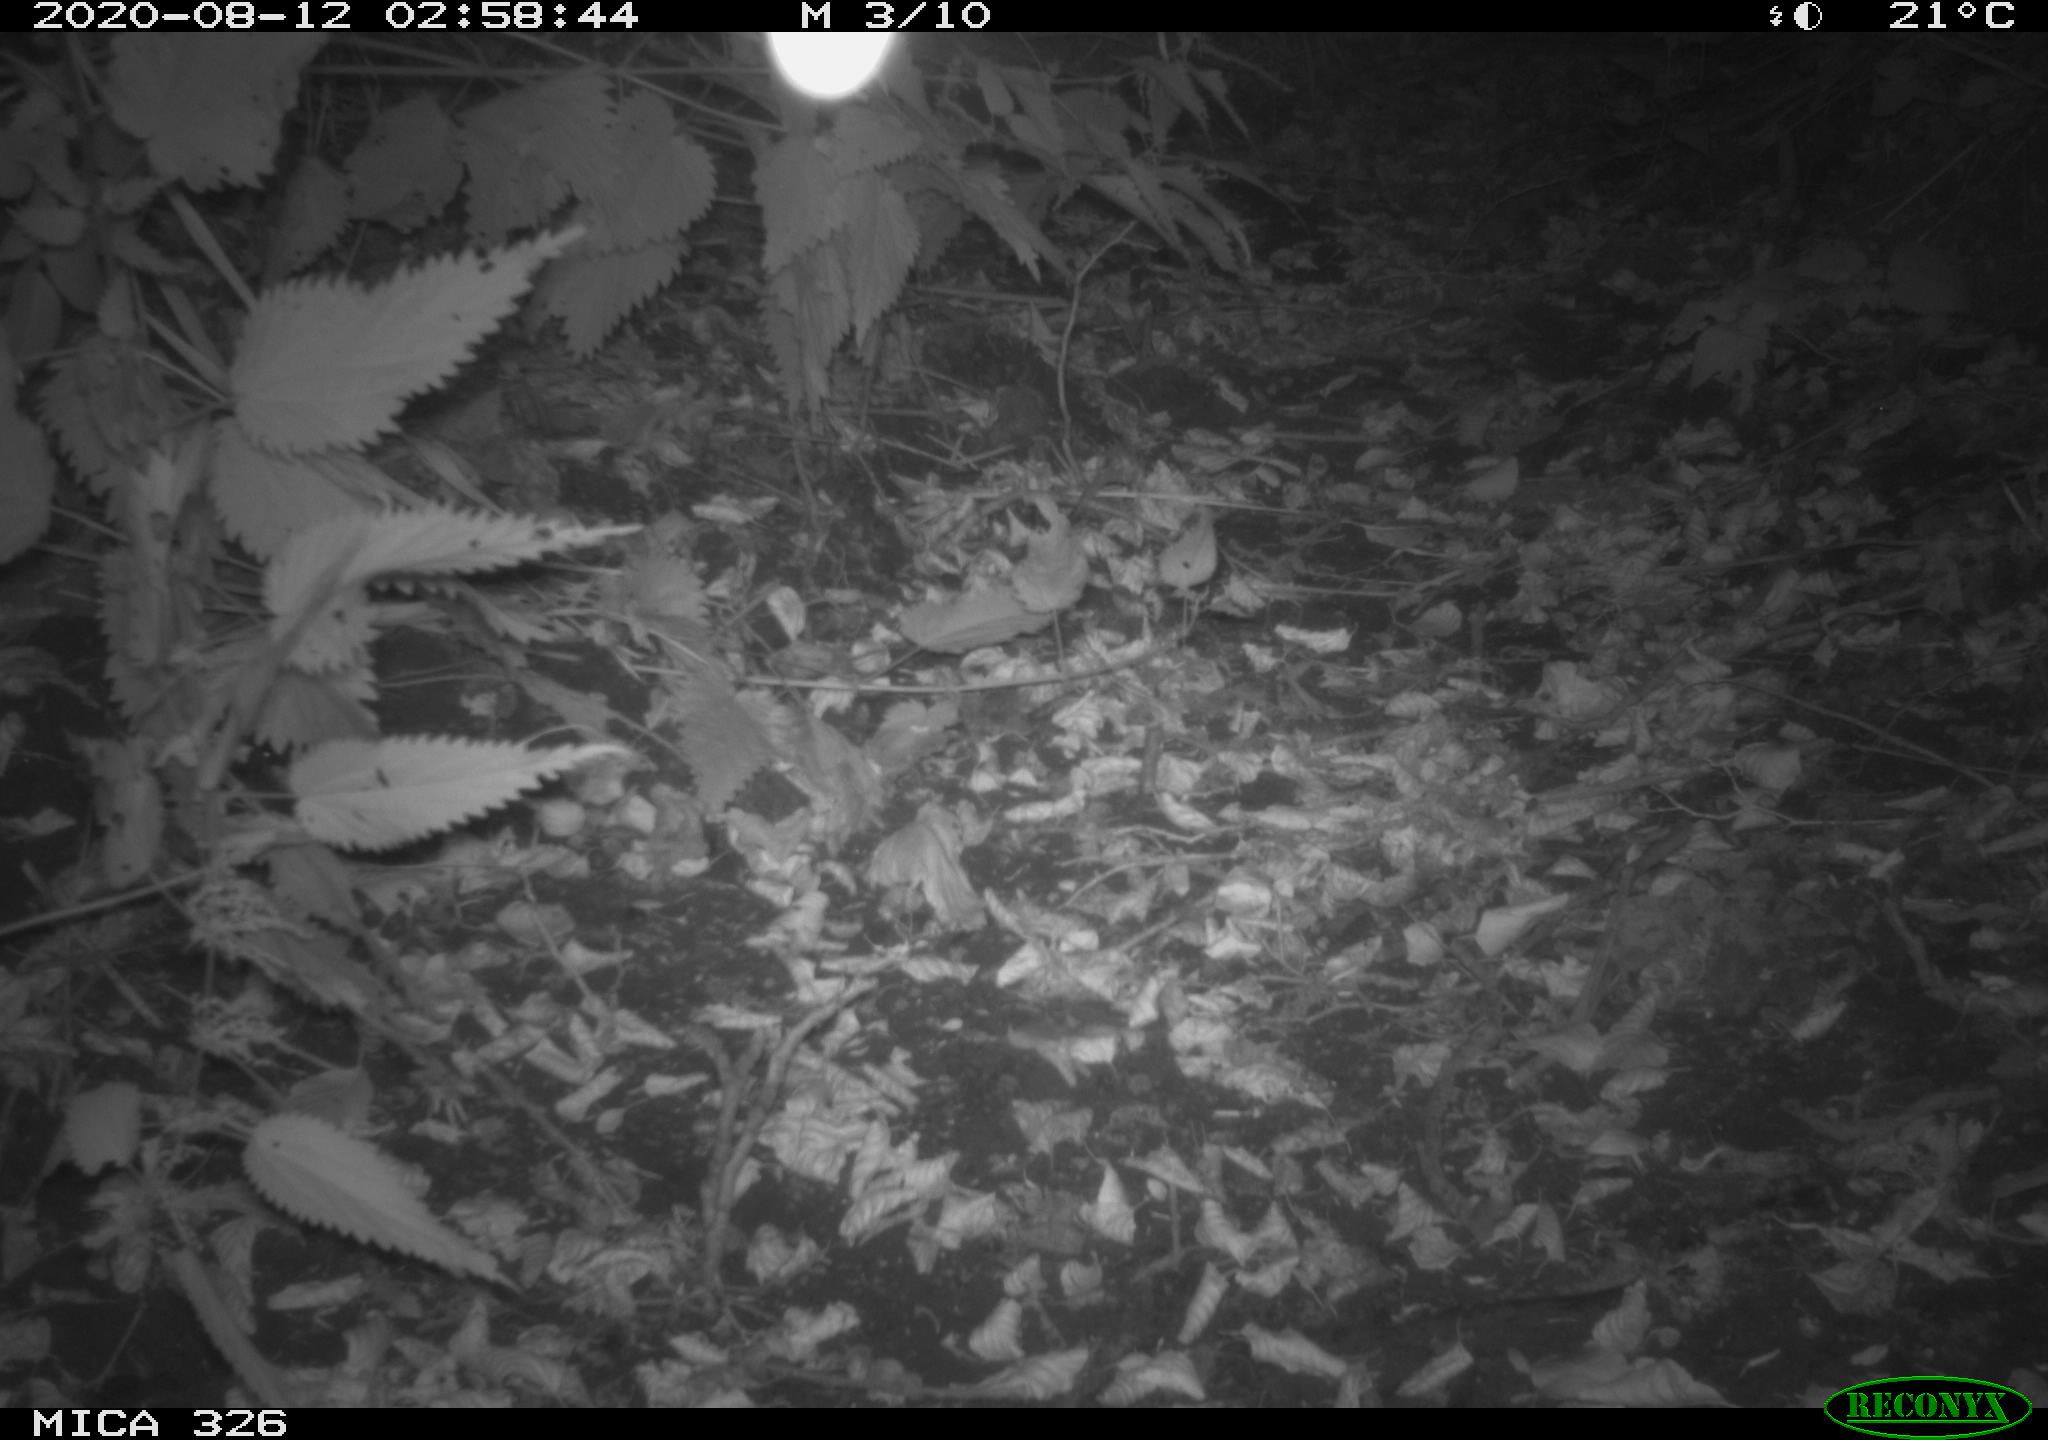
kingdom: Animalia
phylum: Chordata
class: Mammalia
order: Rodentia
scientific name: Rodentia
